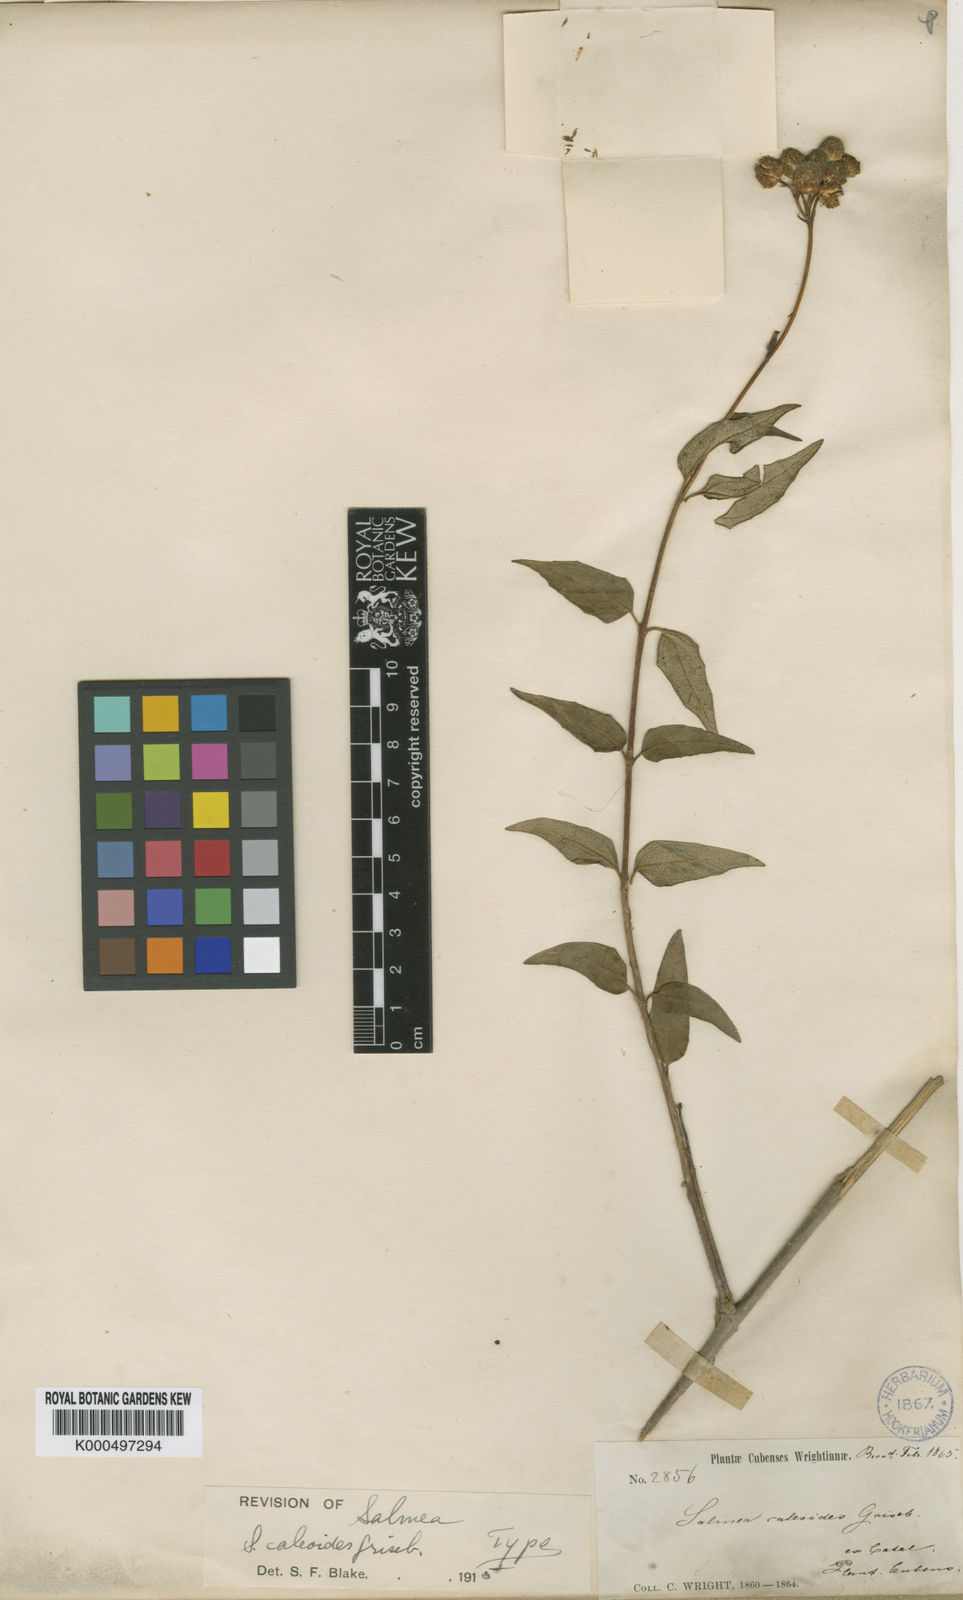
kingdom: Plantae
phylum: Tracheophyta
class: Magnoliopsida
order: Asterales
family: Asteraceae
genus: Salmea
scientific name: Salmea caleoides
